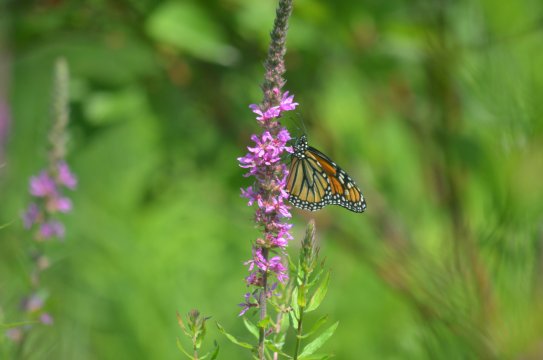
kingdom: Animalia
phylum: Arthropoda
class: Insecta
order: Lepidoptera
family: Nymphalidae
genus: Danaus
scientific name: Danaus plexippus
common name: Monarch
